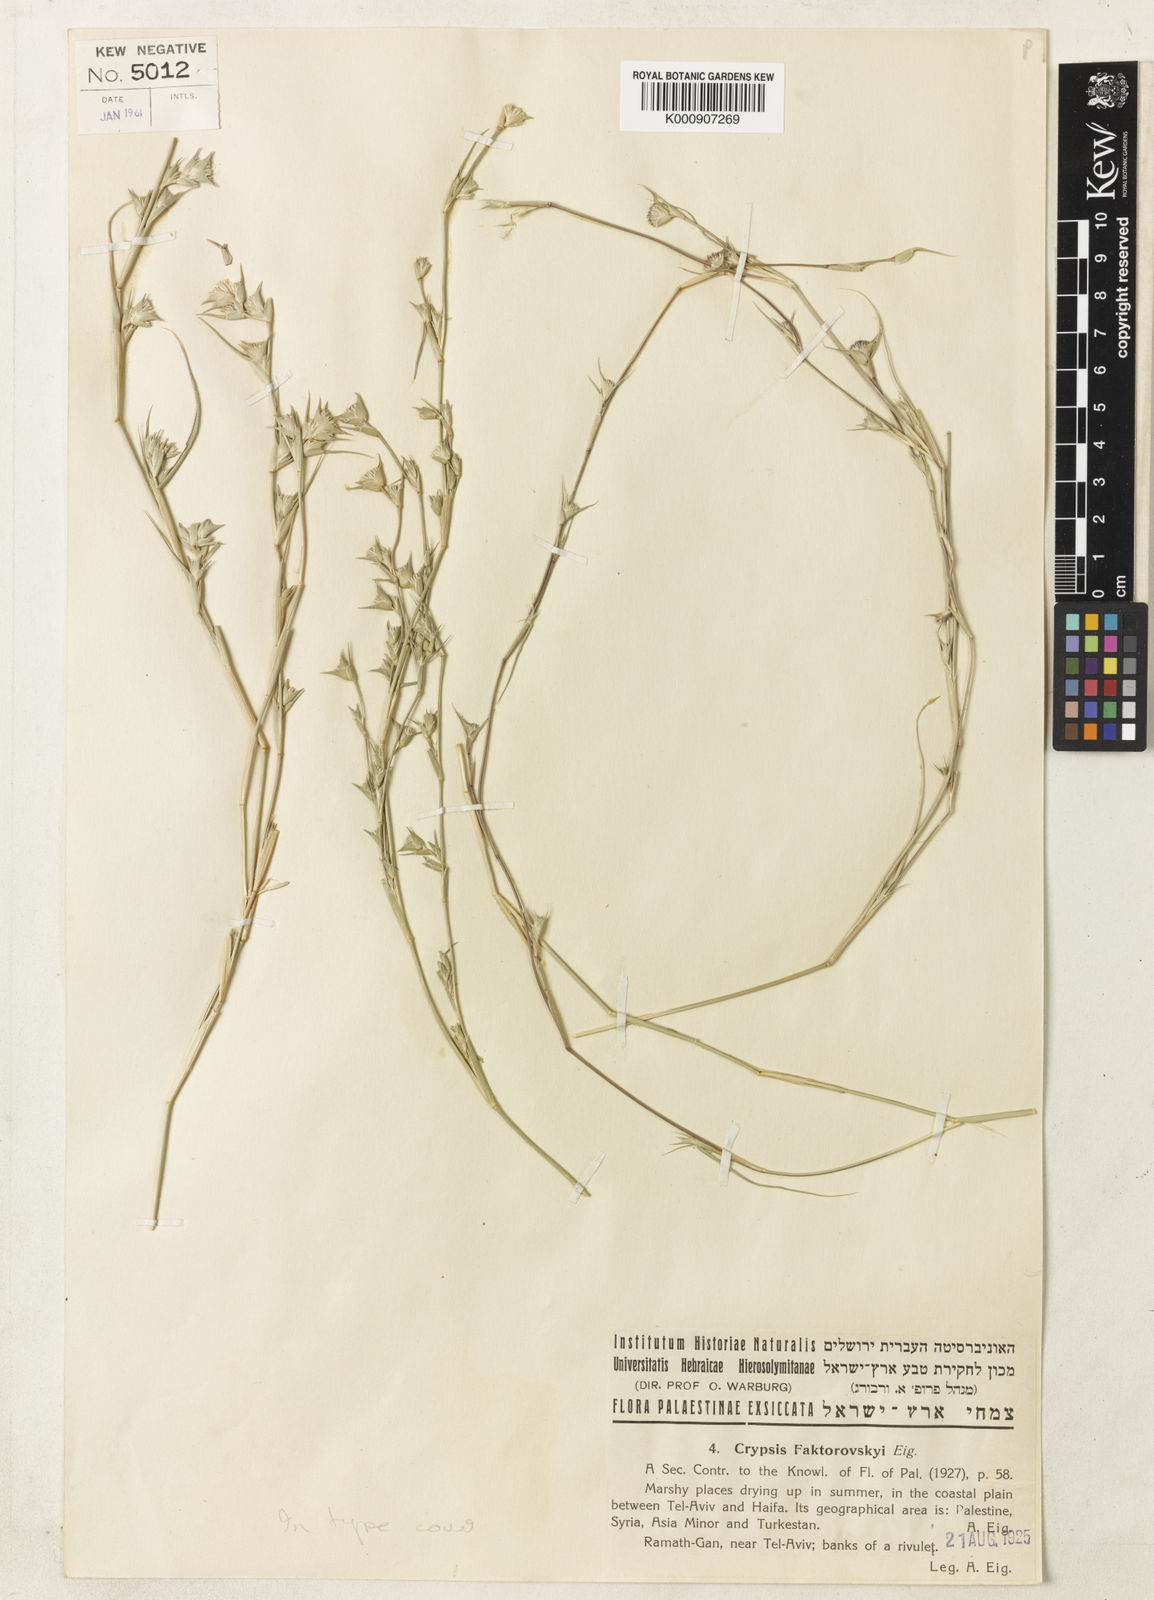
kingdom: Plantae
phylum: Tracheophyta
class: Liliopsida
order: Poales
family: Poaceae
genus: Sporobolus
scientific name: Sporobolus factorovskyi
